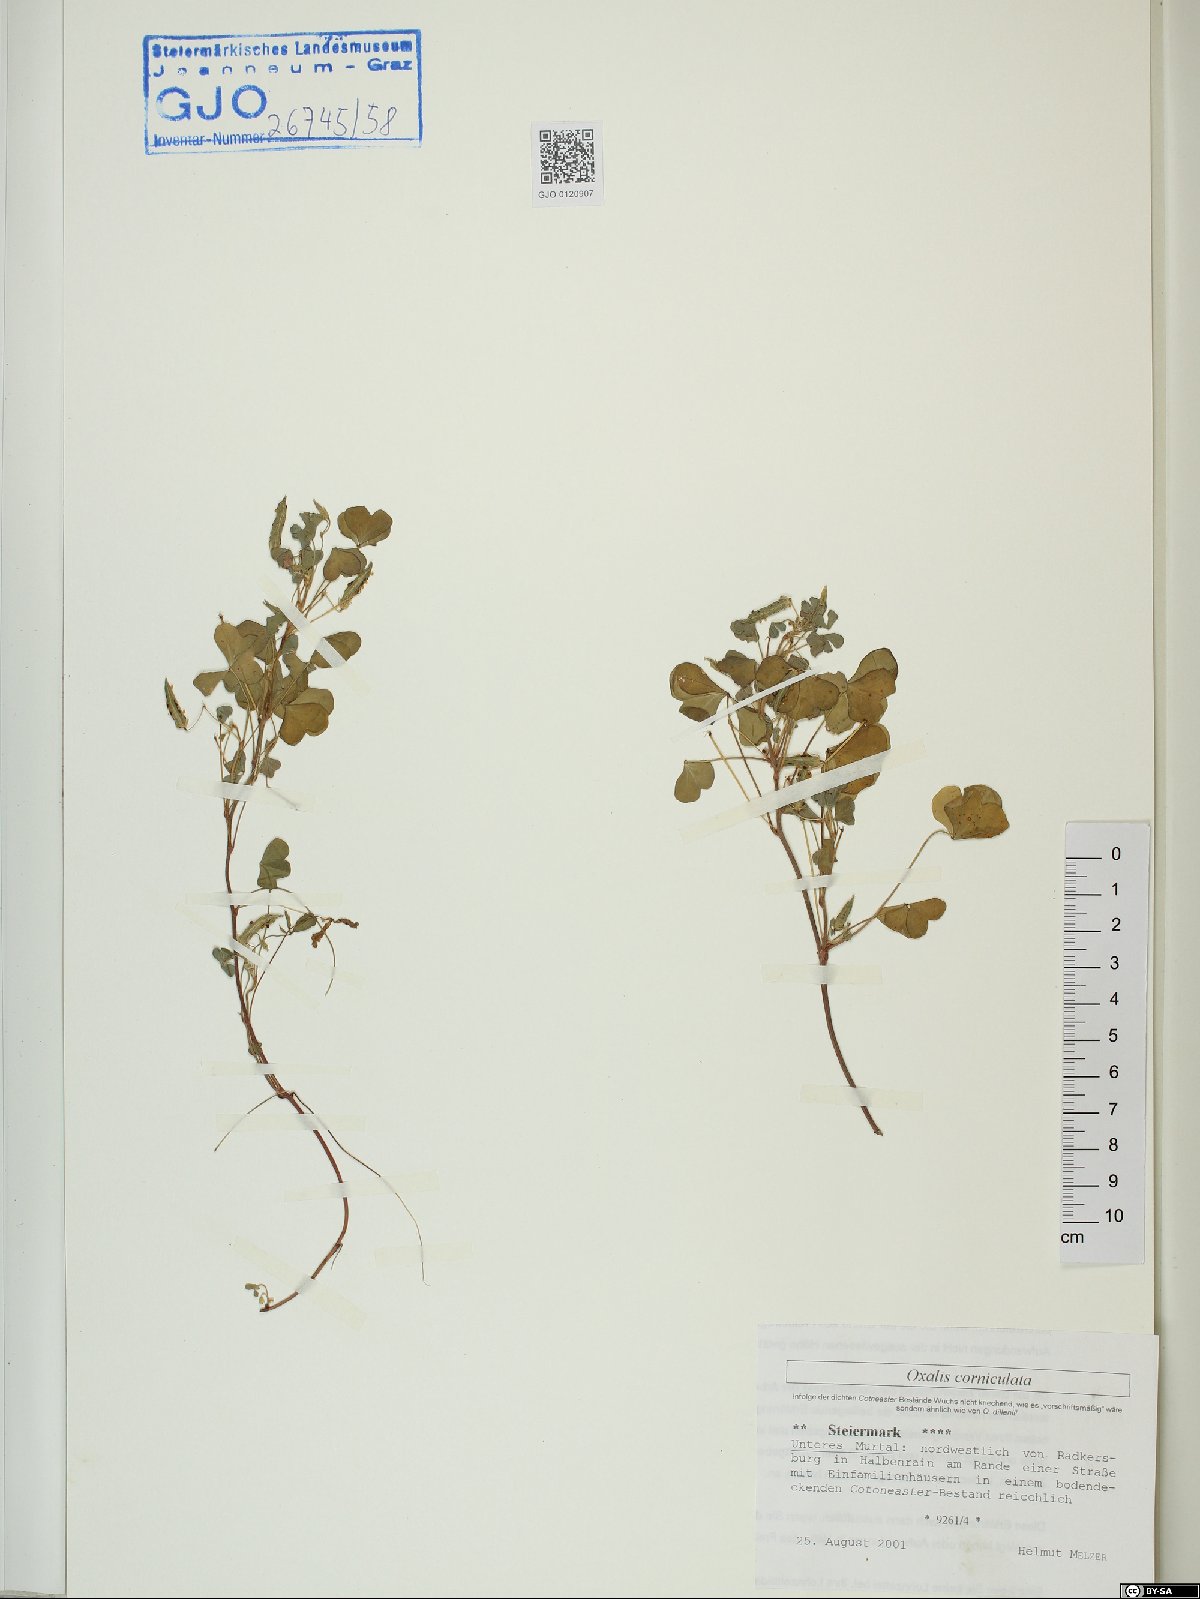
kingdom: Plantae
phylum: Tracheophyta
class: Magnoliopsida
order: Oxalidales
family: Oxalidaceae
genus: Oxalis
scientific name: Oxalis corniculata
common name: Procumbent yellow-sorrel
